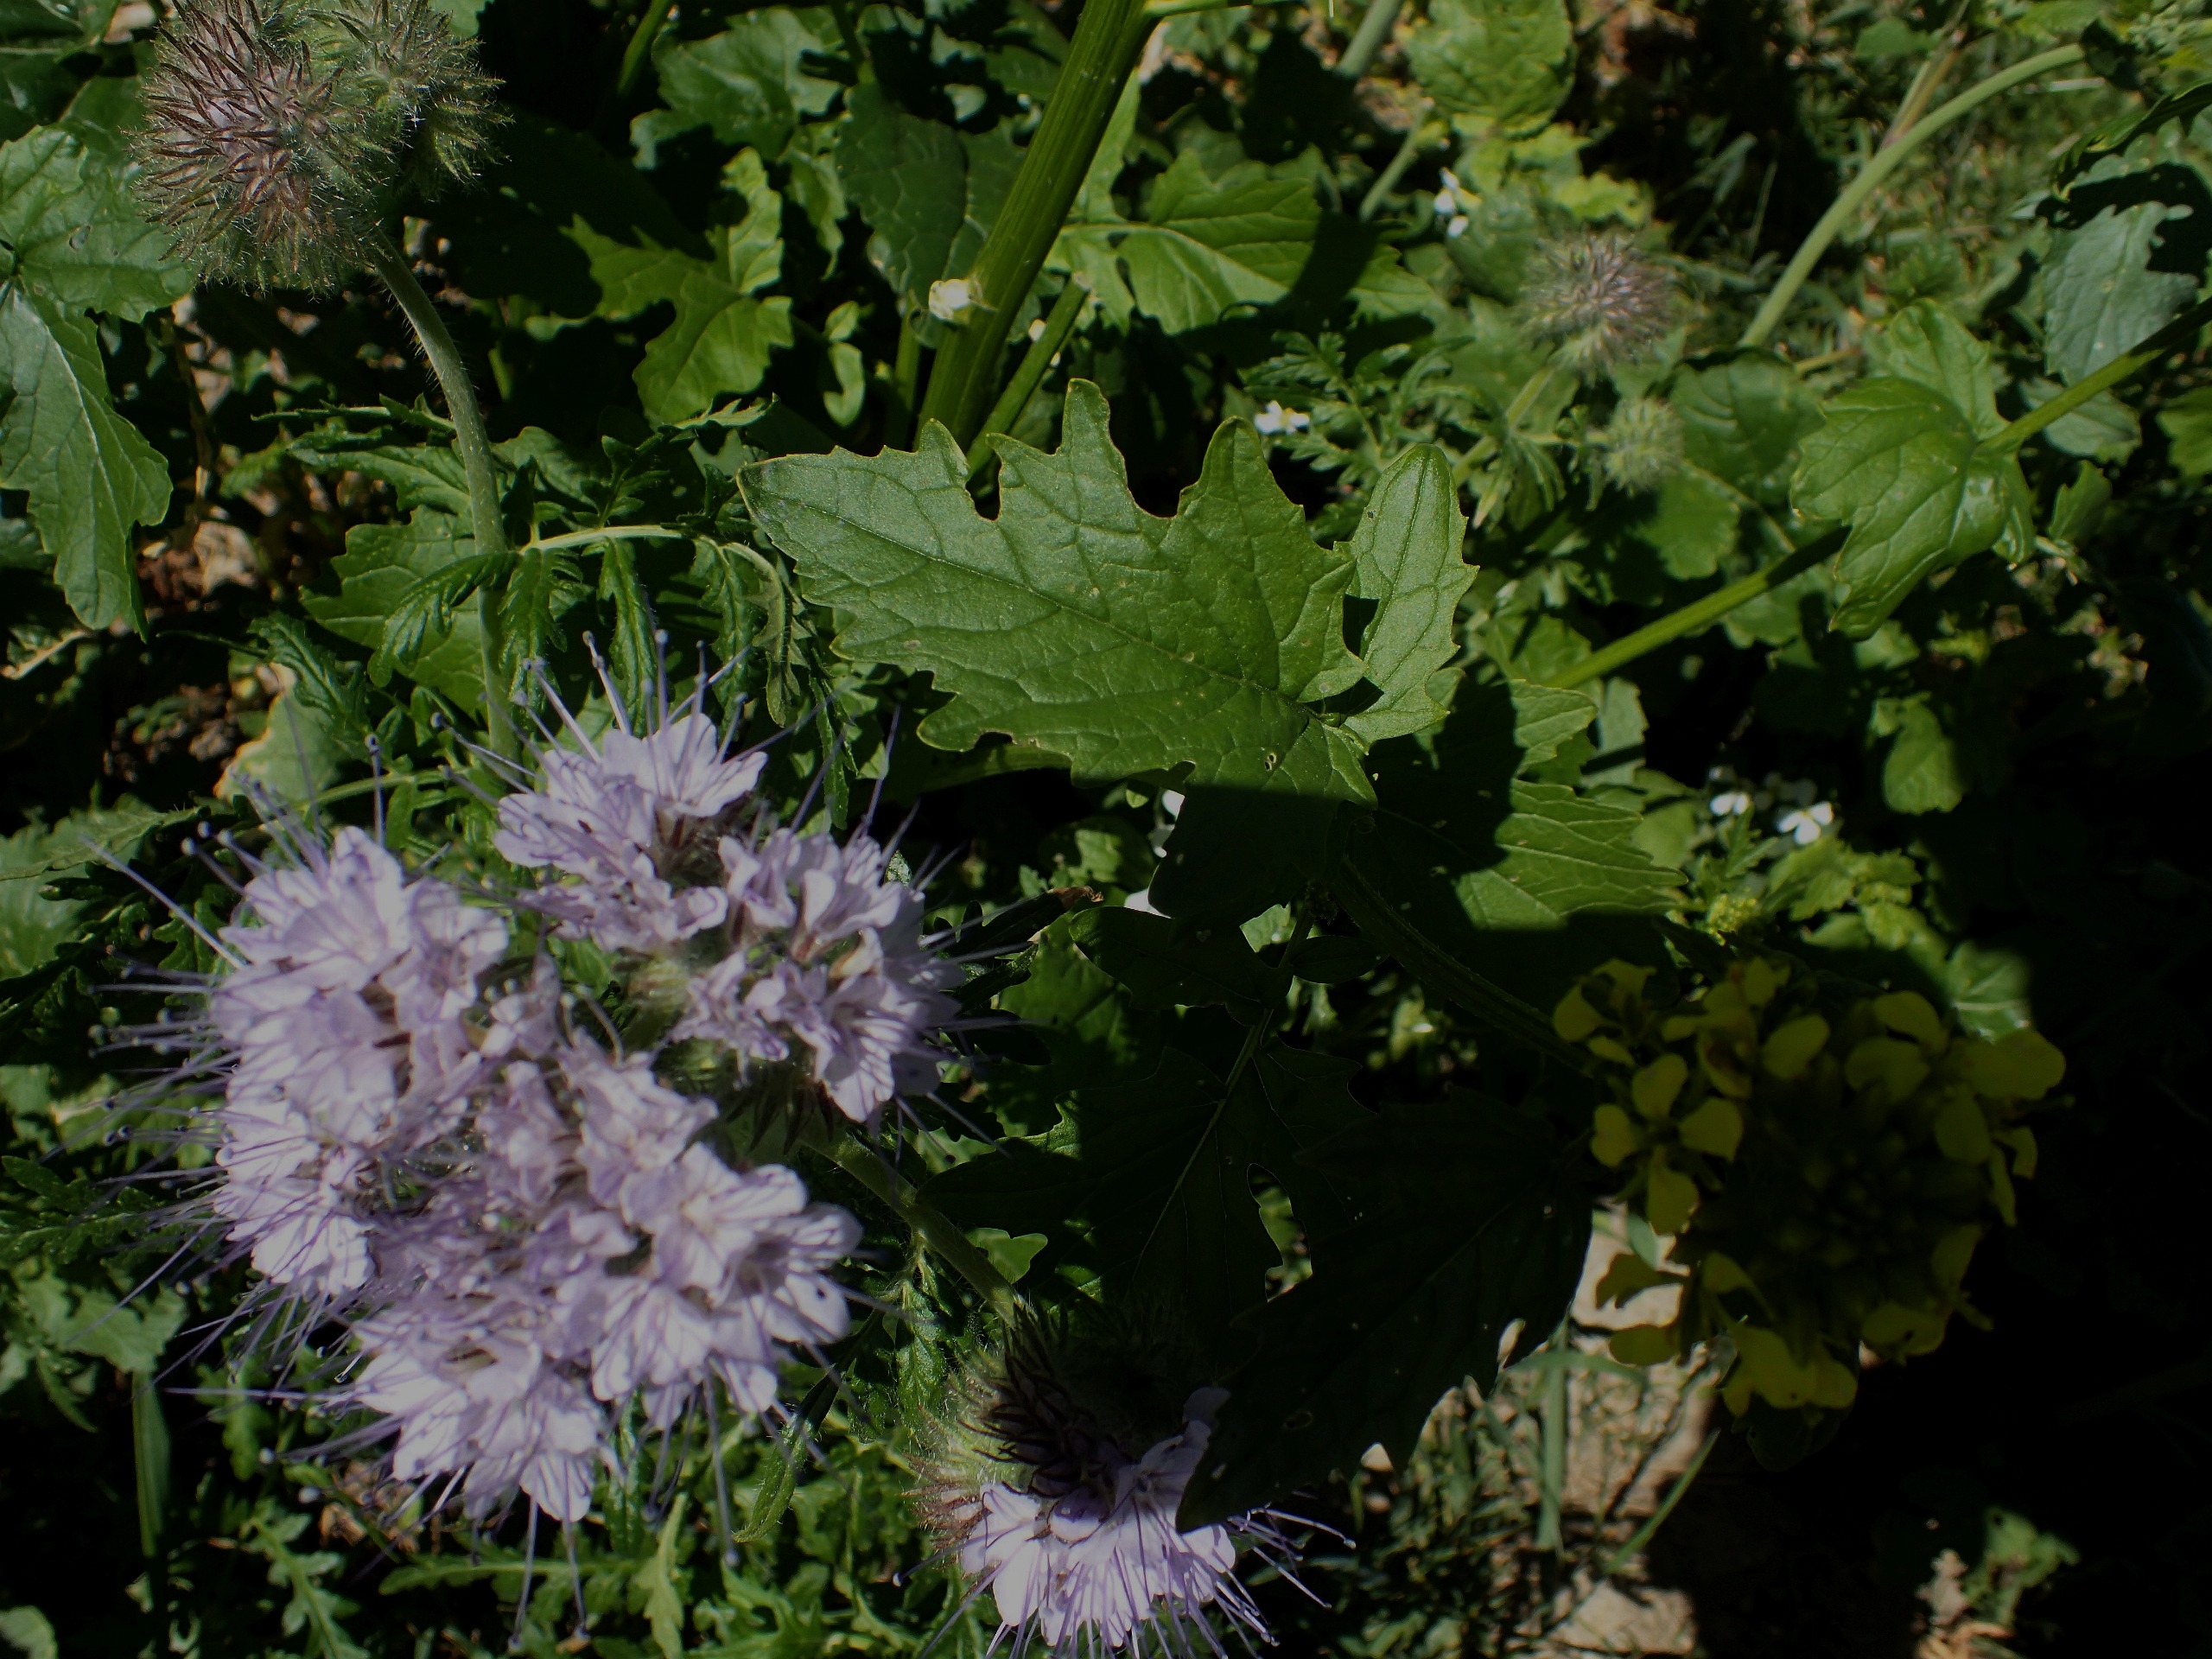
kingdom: Plantae
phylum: Tracheophyta
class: Magnoliopsida
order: Boraginales
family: Hydrophyllaceae
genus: Phacelia
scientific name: Phacelia tanacetifolia
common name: Honningurt
